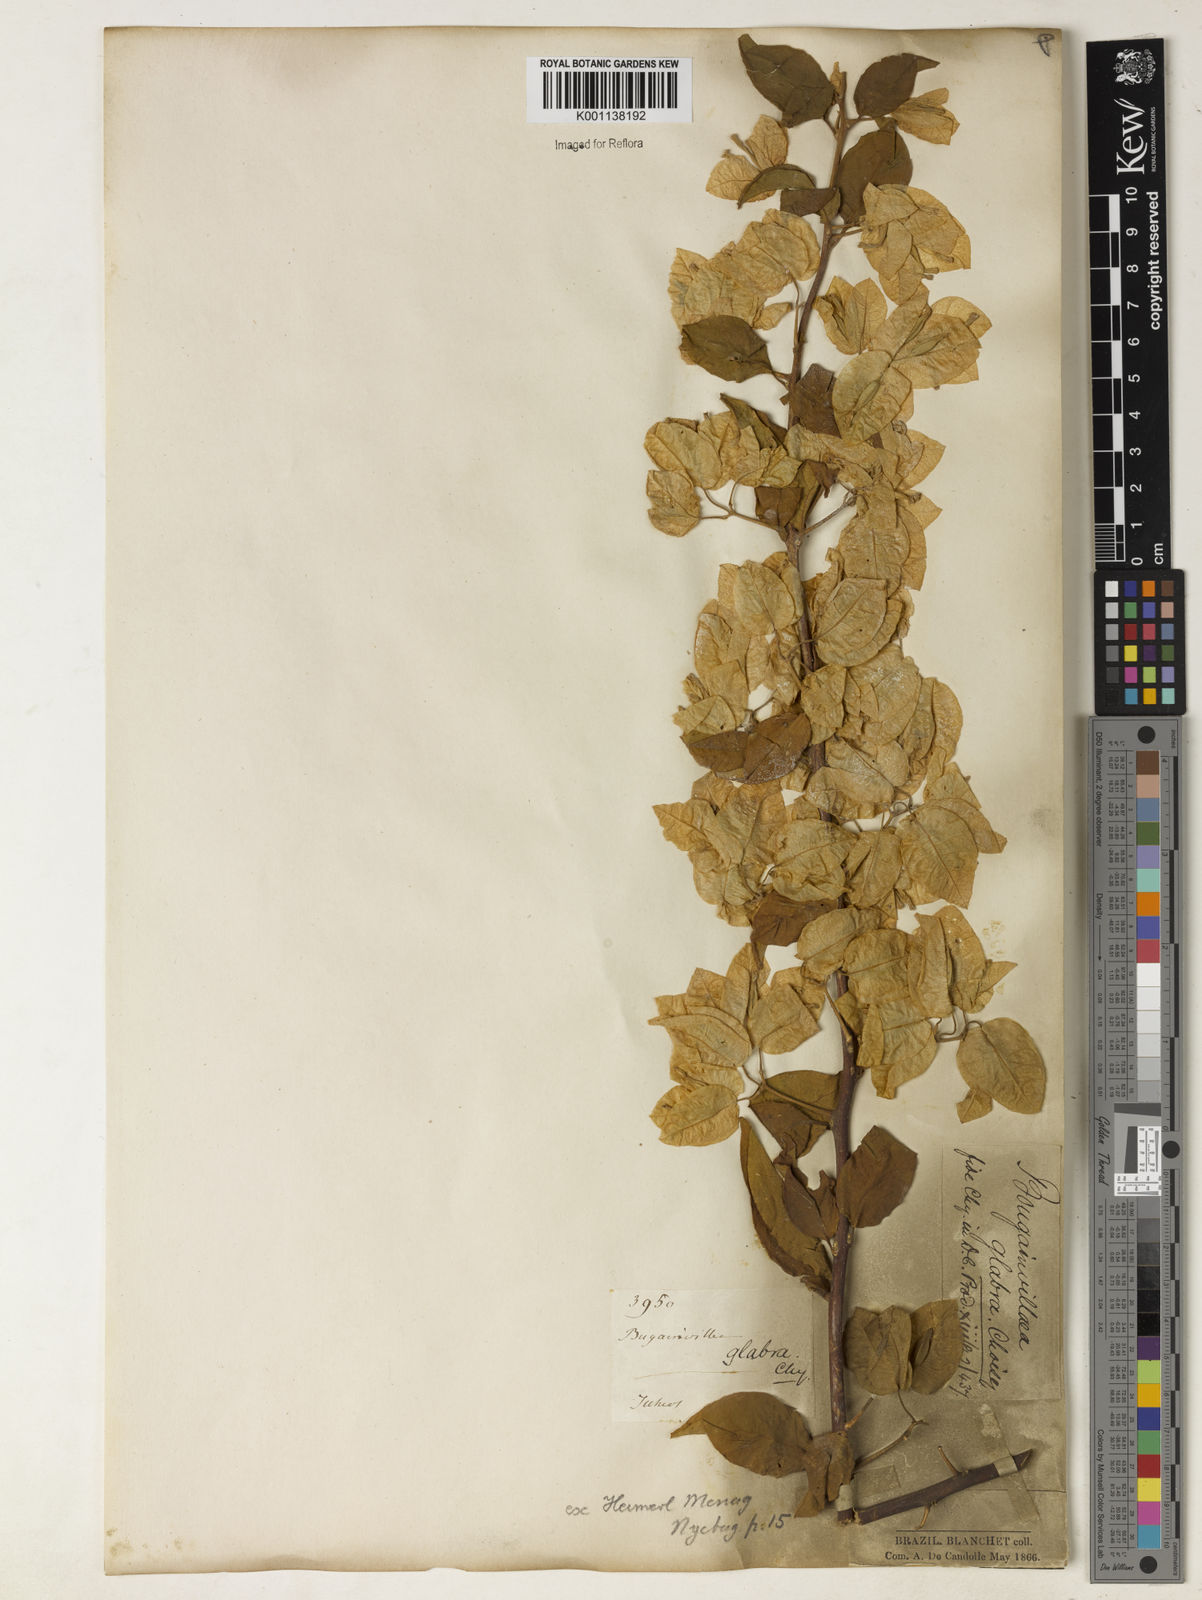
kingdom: Plantae
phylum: Tracheophyta
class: Magnoliopsida
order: Caryophyllales
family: Nyctaginaceae
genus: Bougainvillea
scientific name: Bougainvillea glabra
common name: Paperflower
